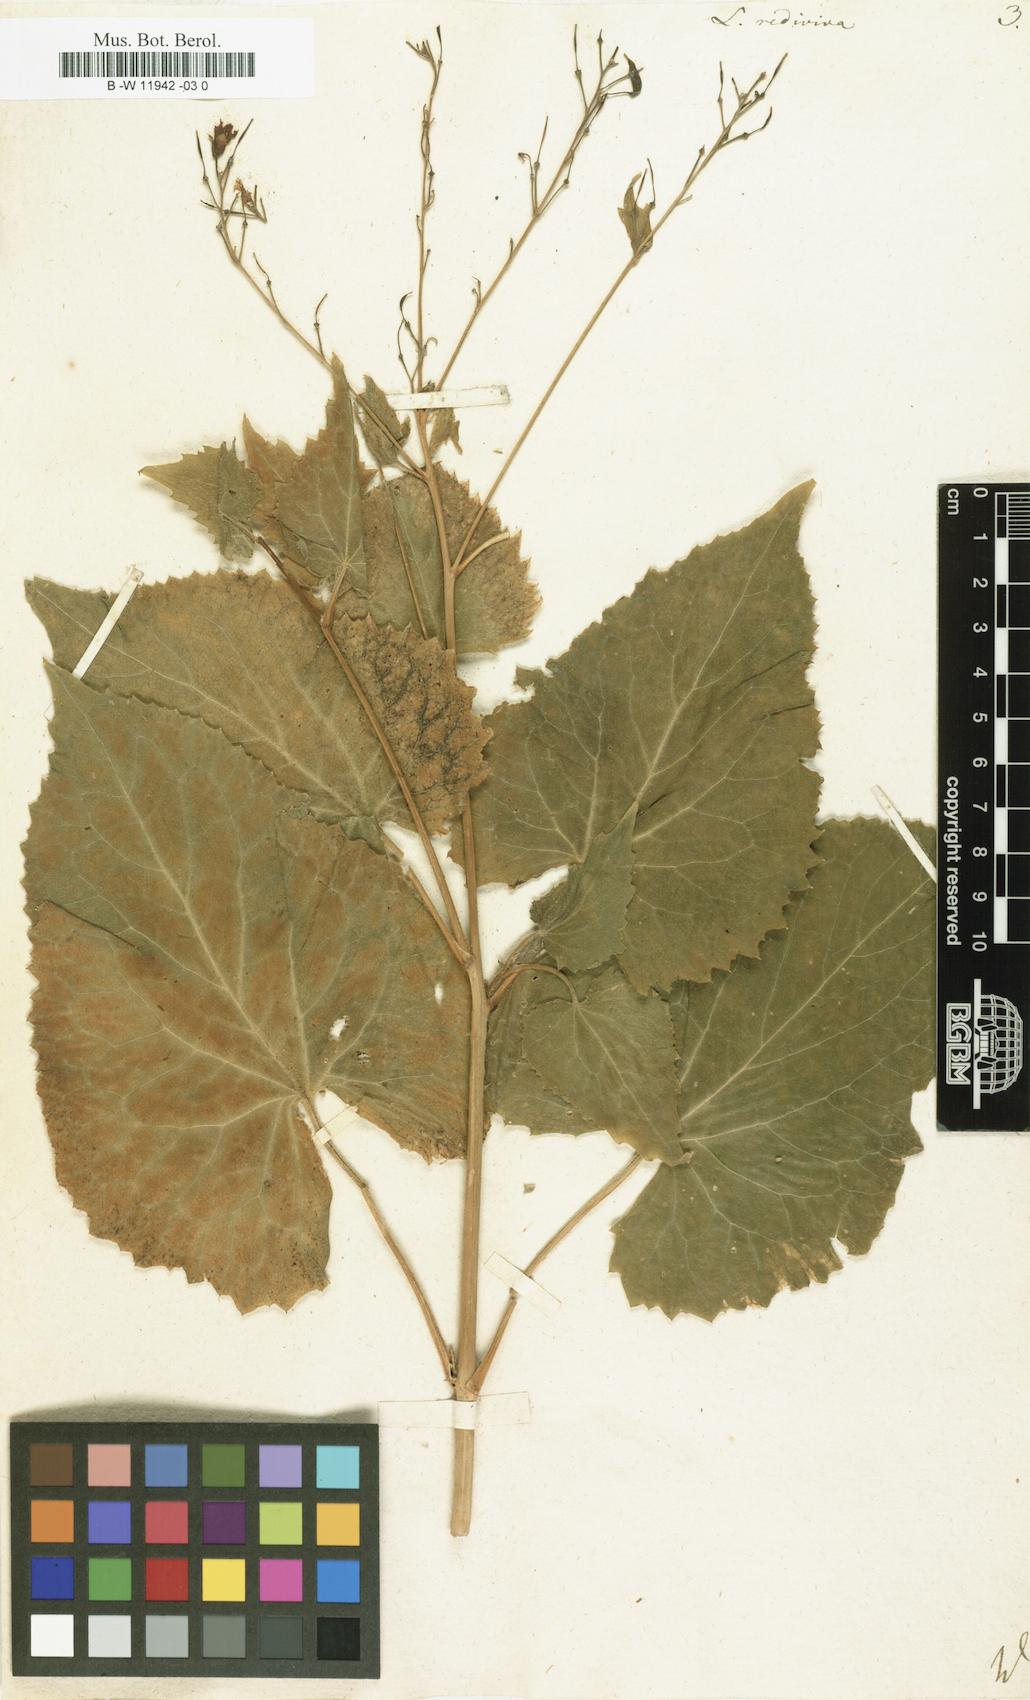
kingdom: Plantae
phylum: Tracheophyta
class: Magnoliopsida
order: Brassicales
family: Brassicaceae
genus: Lunaria
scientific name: Lunaria rediviva
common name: Perennial honesty
